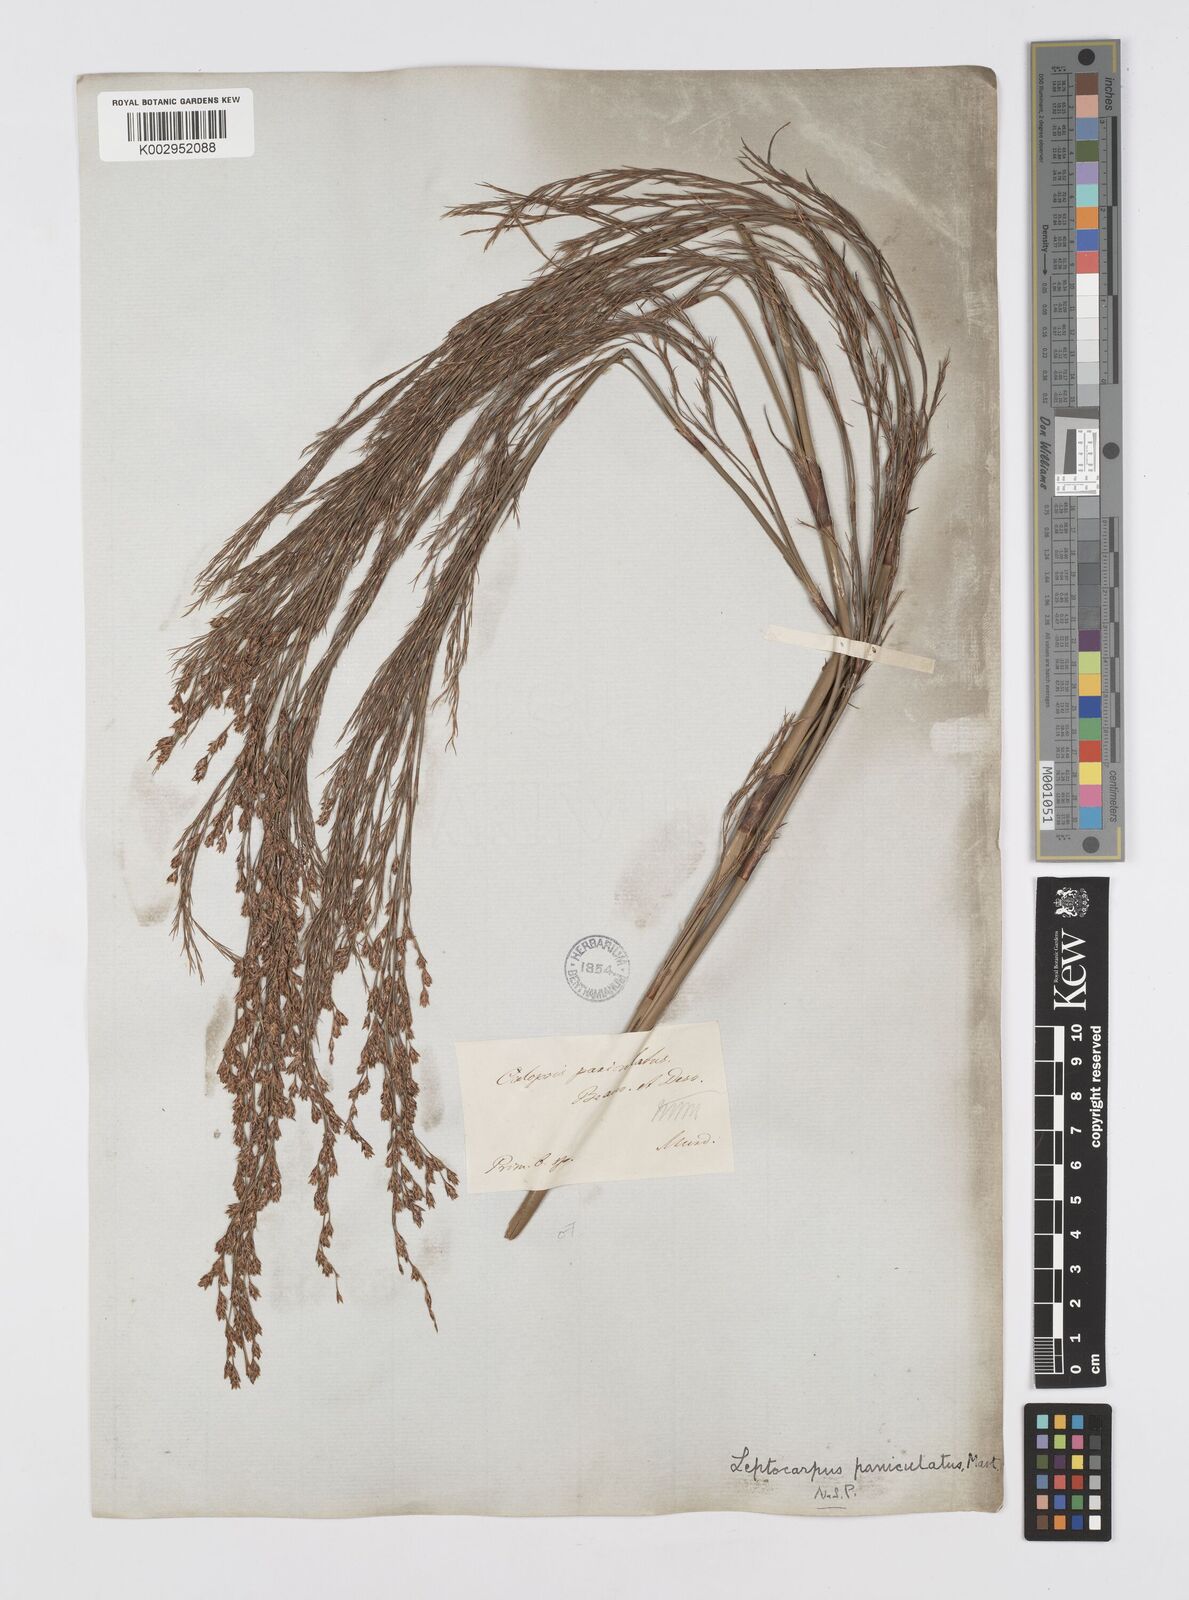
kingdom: Plantae
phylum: Tracheophyta
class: Liliopsida
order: Poales
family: Restionaceae
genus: Restio
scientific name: Restio paniculatus
